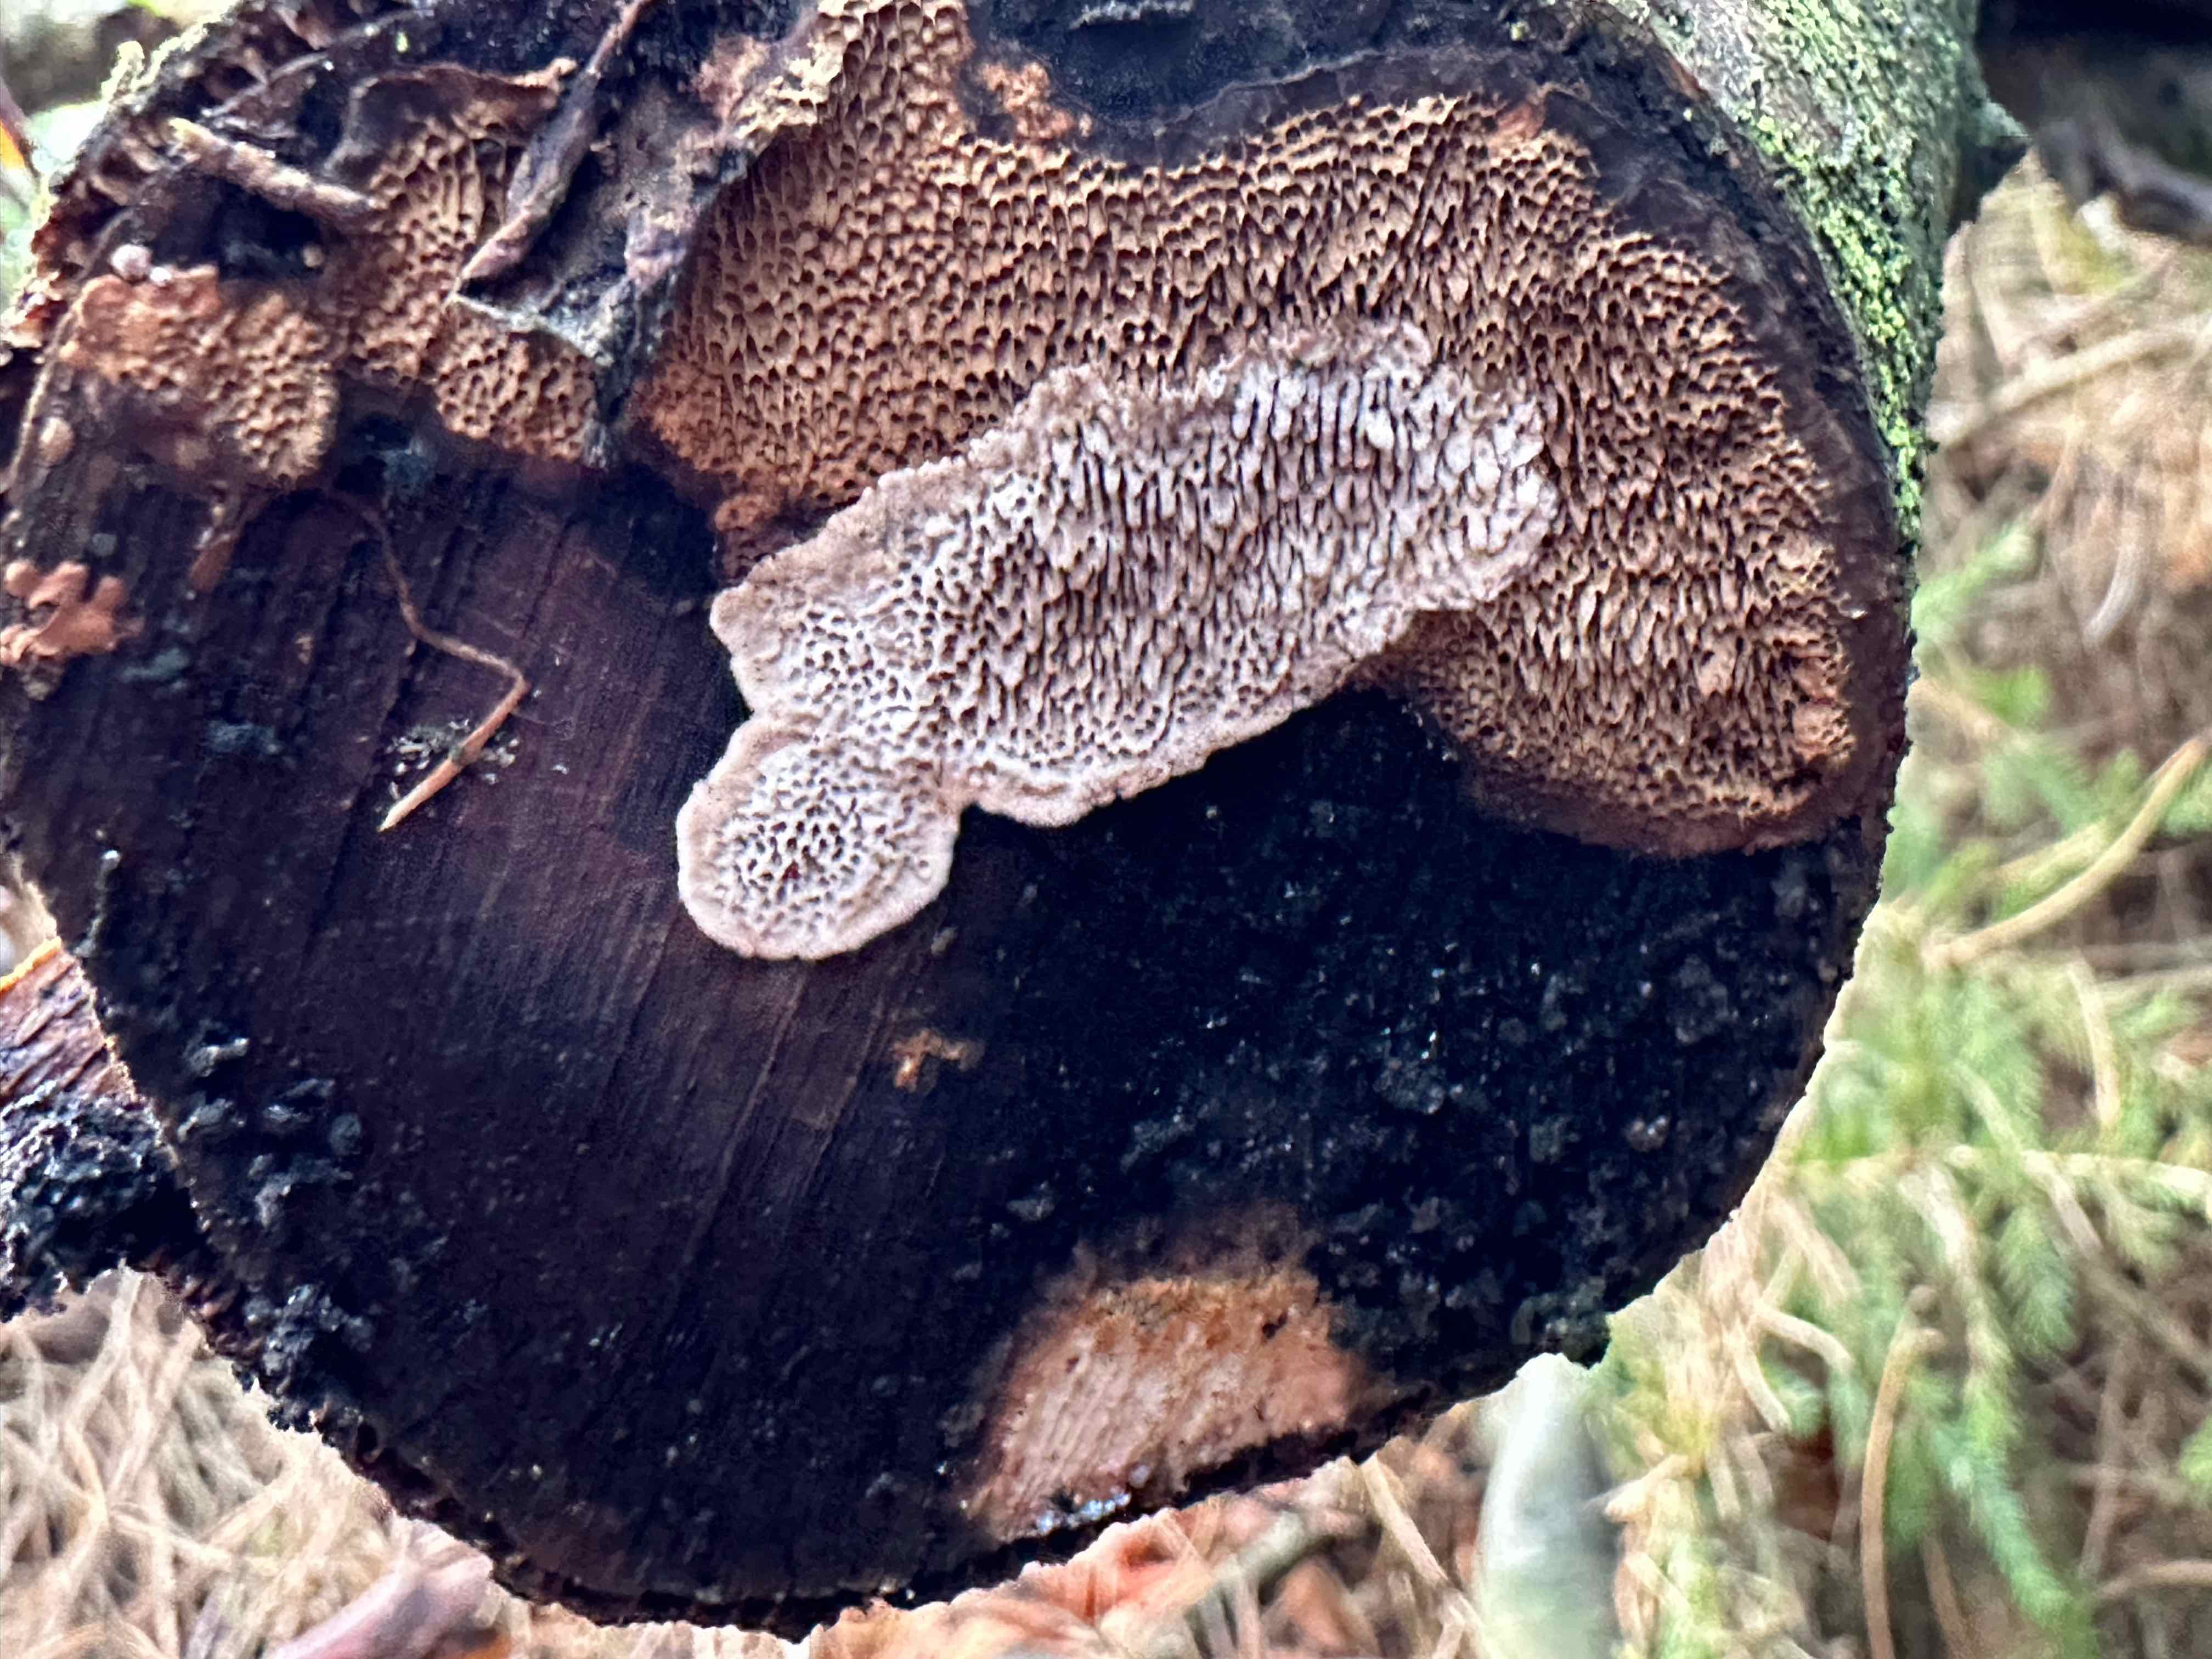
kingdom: Fungi
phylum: Basidiomycota
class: Agaricomycetes
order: Polyporales
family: Polyporaceae
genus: Podofomes
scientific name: Podofomes mollis
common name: blød begporesvamp
